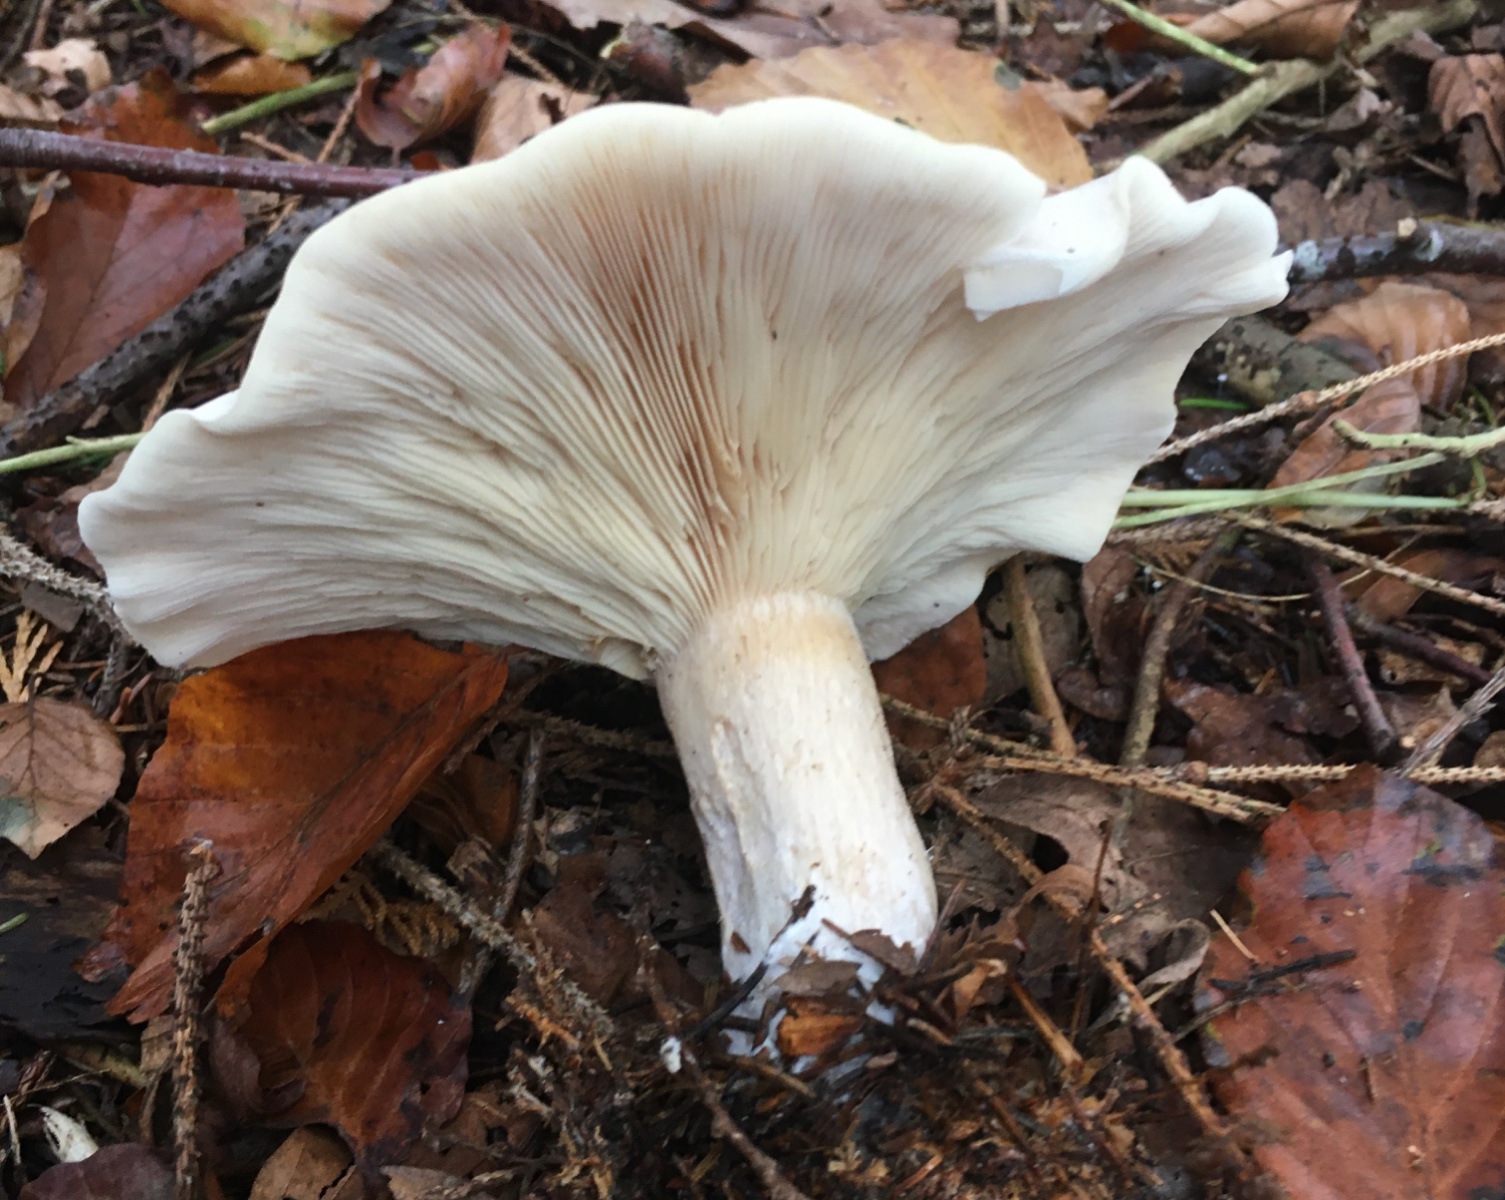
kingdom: Fungi
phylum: Basidiomycota
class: Agaricomycetes
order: Agaricales
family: Tricholomataceae
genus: Clitocybe
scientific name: Clitocybe nebularis
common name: tåge-tragthat
